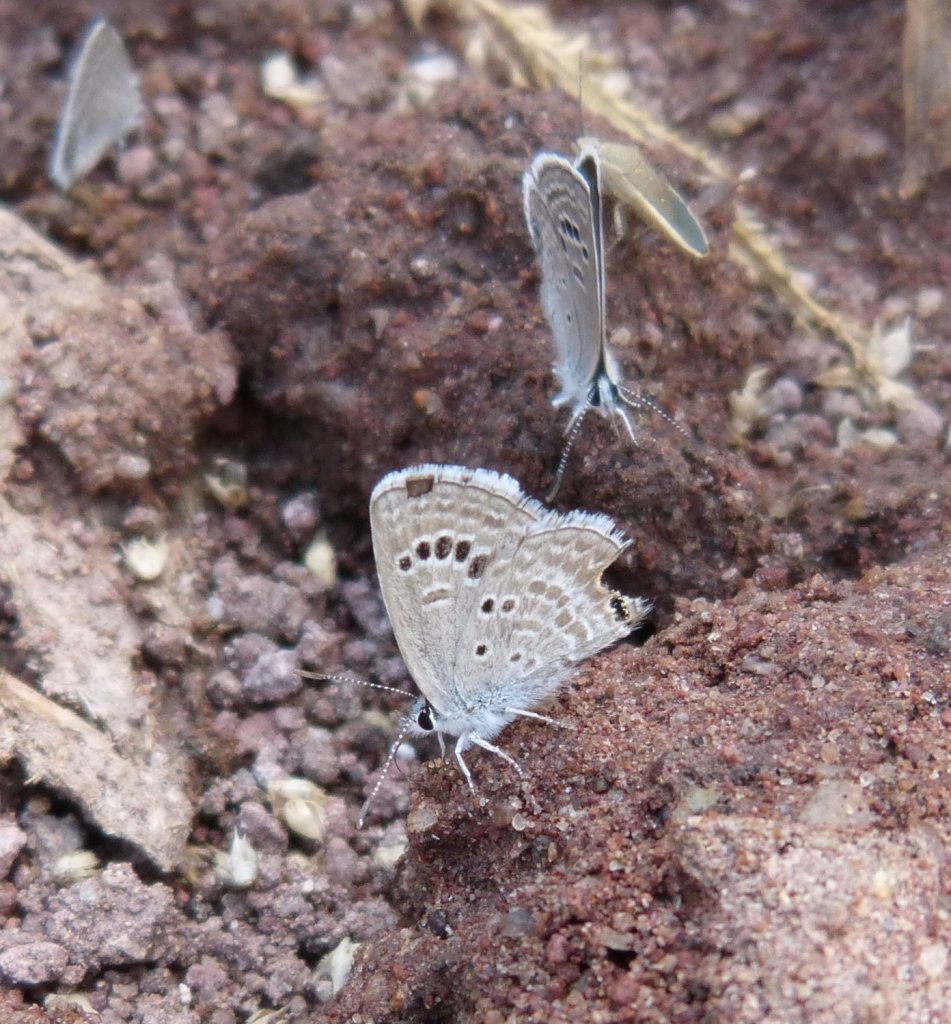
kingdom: Animalia
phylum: Arthropoda
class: Insecta
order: Lepidoptera
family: Lycaenidae
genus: Echinargus
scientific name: Echinargus isola
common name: Reakirt's Blue
